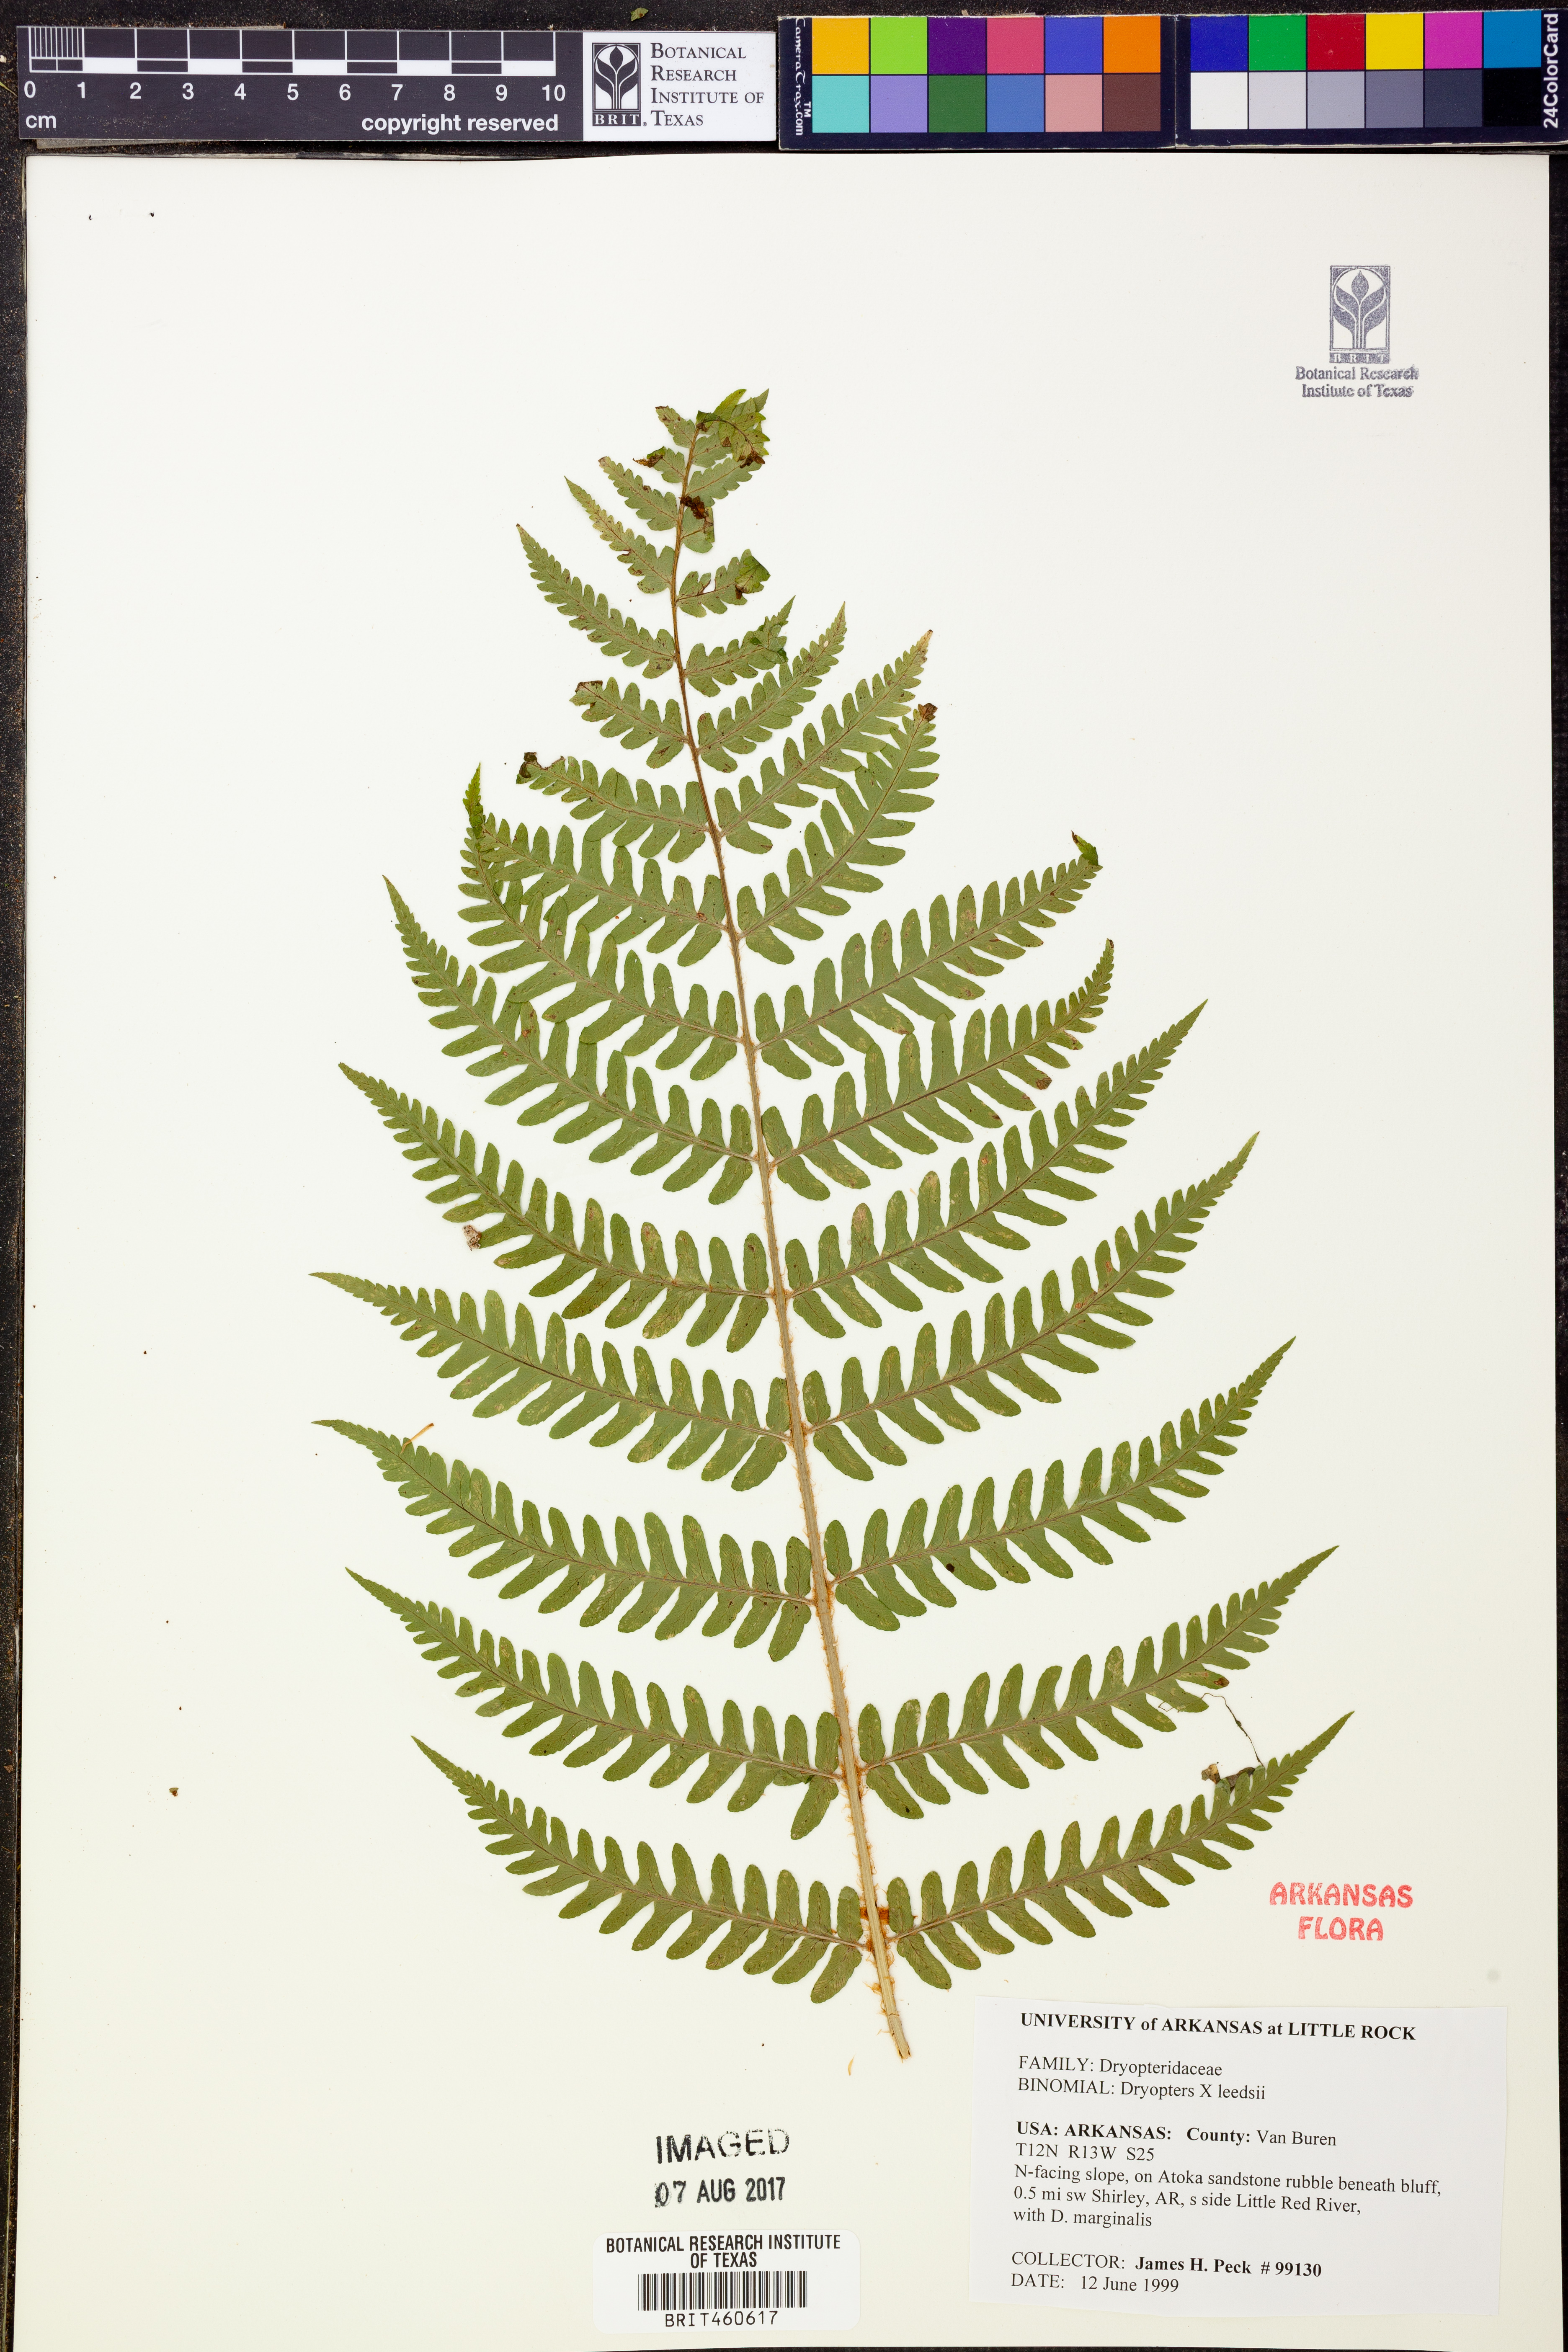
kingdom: Plantae
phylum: Tracheophyta
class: Polypodiopsida
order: Polypodiales
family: Dryopteridaceae
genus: Dryopteris
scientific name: Dryopteris
